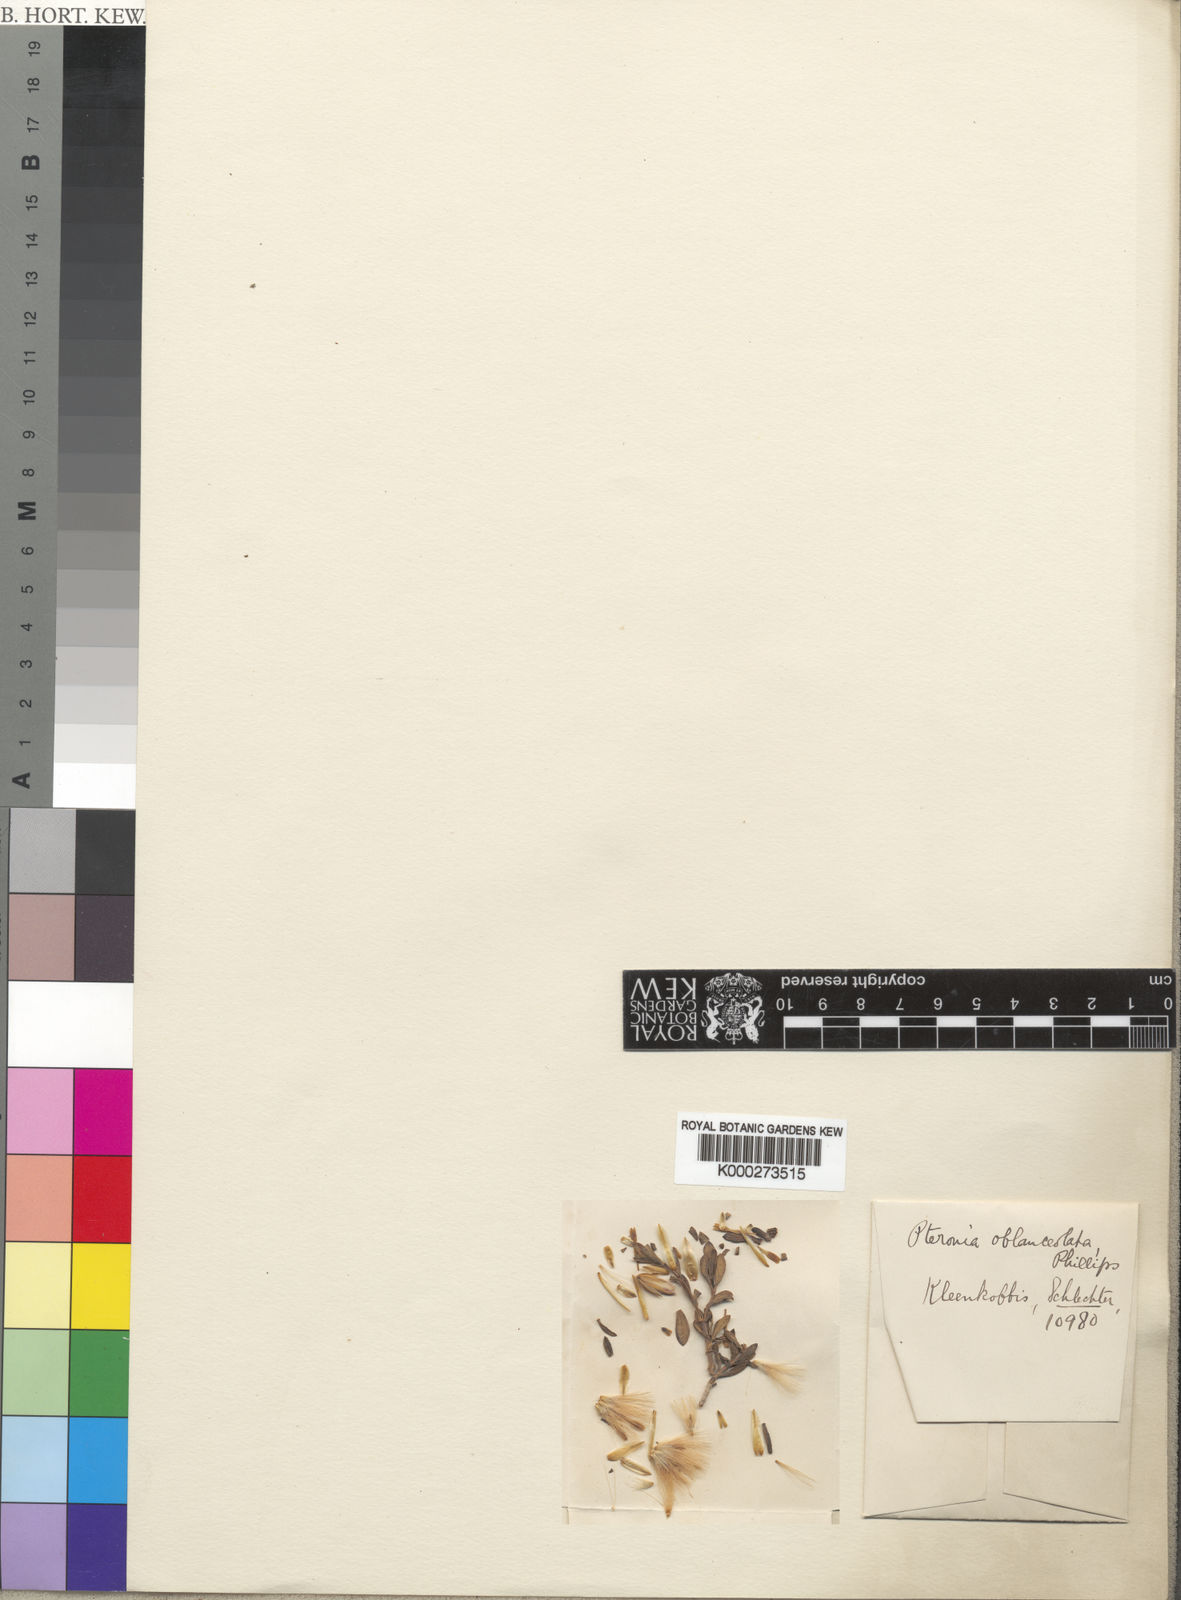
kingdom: Plantae
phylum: Tracheophyta
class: Magnoliopsida
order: Asterales
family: Asteraceae
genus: Pteronia
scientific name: Pteronia oblanceolata
